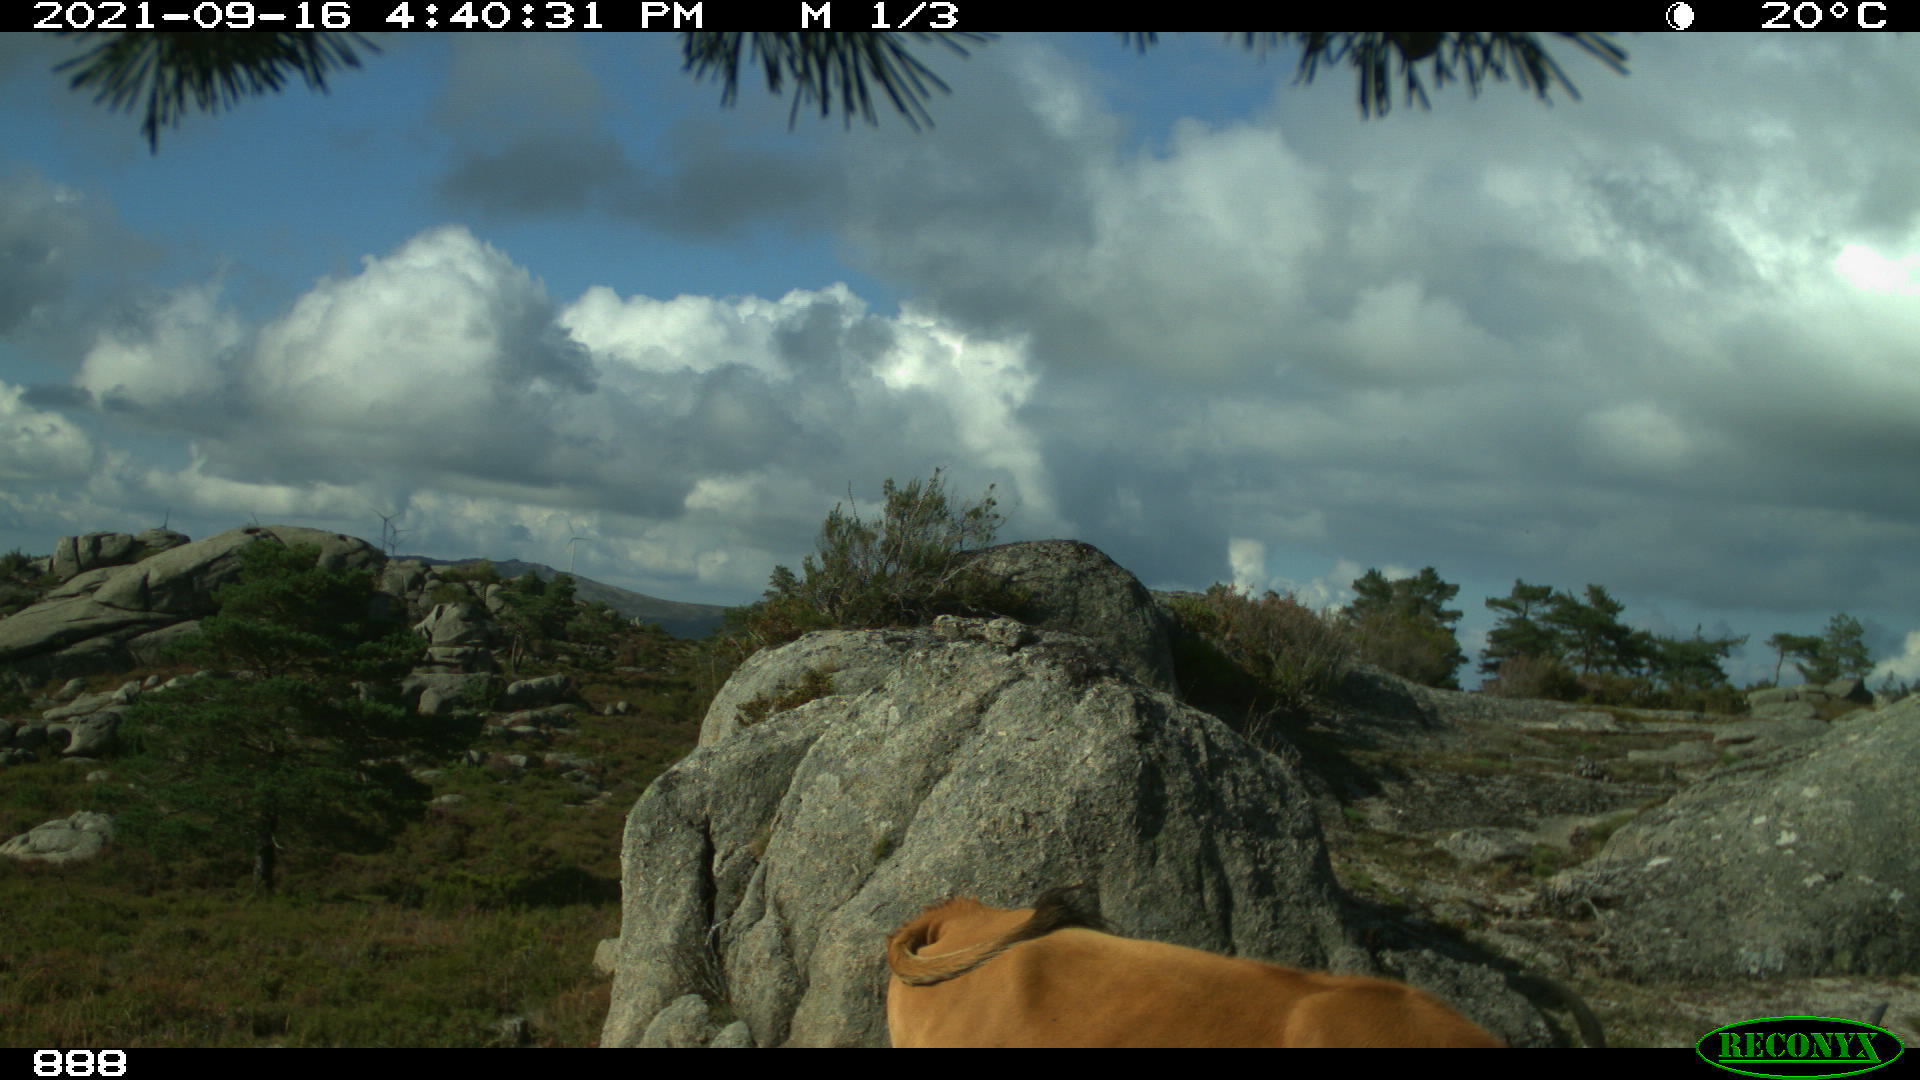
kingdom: Animalia
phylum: Chordata
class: Mammalia
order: Artiodactyla
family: Bovidae
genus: Bos
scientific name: Bos taurus
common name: Domesticated cattle
